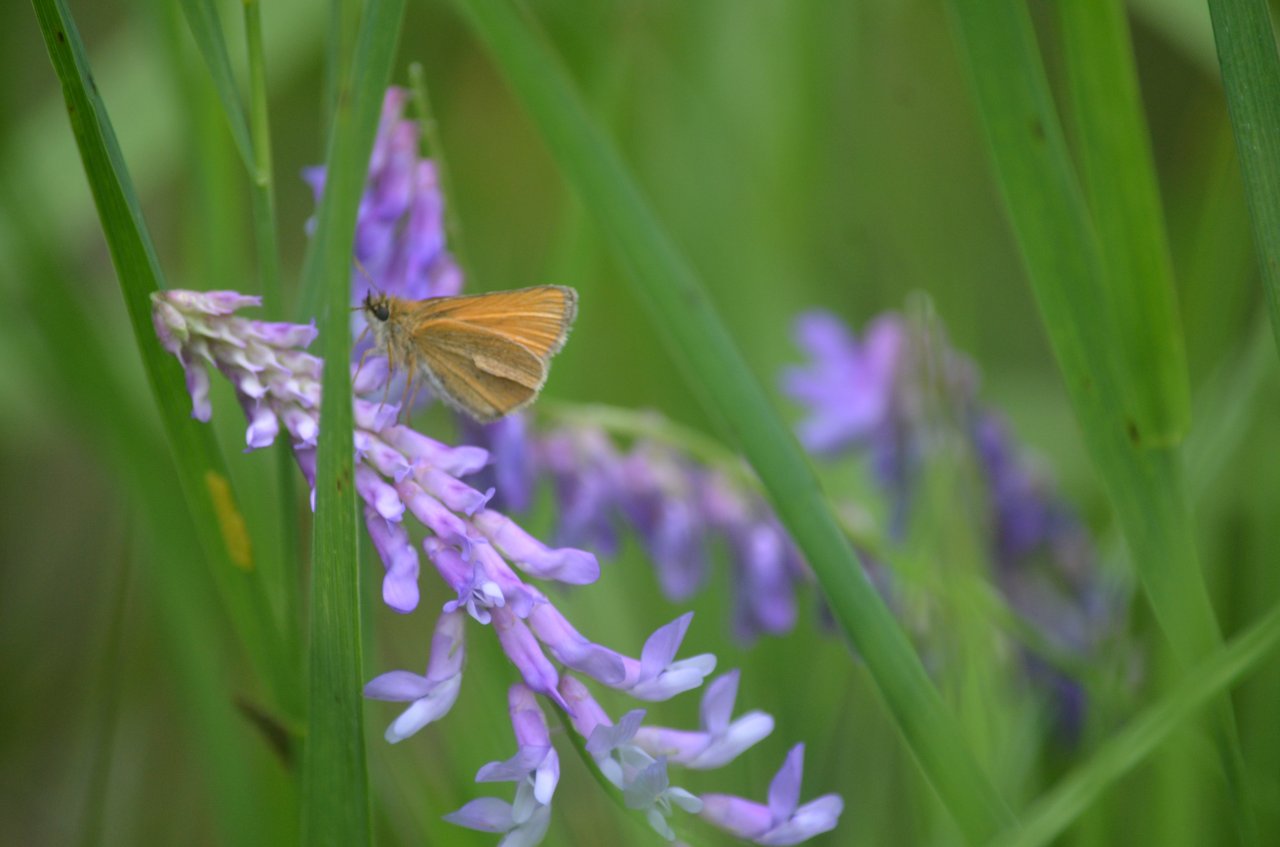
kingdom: Animalia
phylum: Arthropoda
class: Insecta
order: Lepidoptera
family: Hesperiidae
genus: Thymelicus
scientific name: Thymelicus lineola
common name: European Skipper
